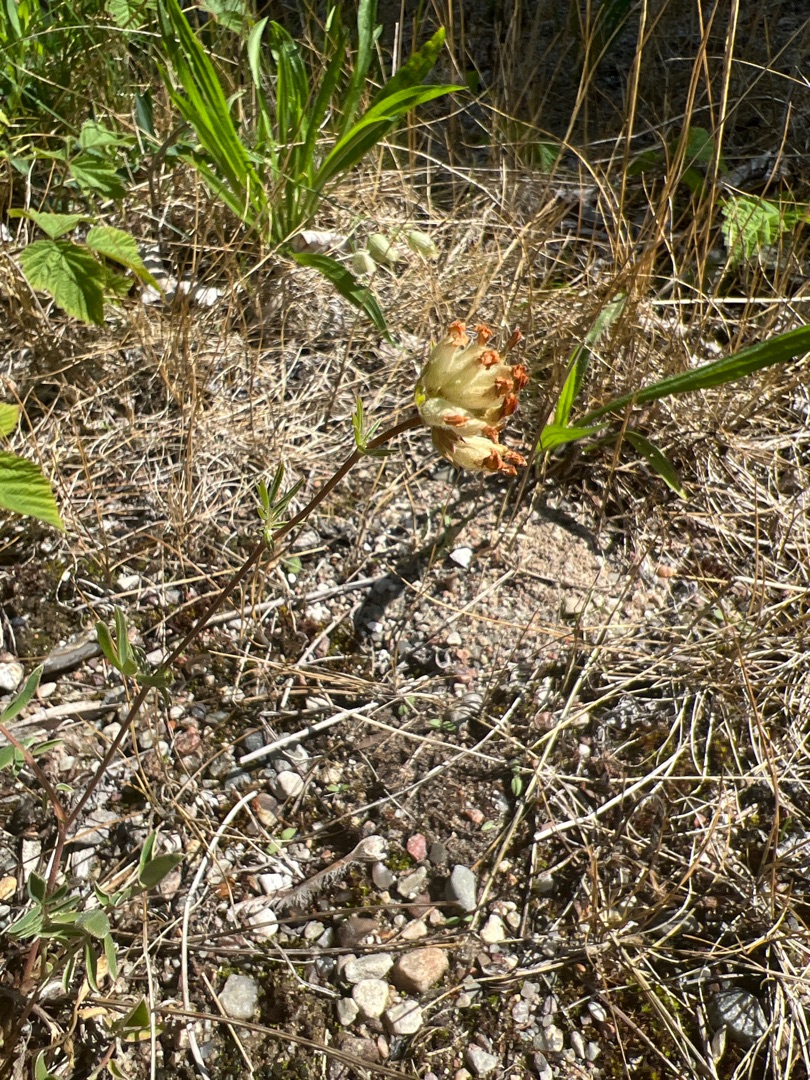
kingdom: Plantae
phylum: Tracheophyta
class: Magnoliopsida
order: Fabales
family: Fabaceae
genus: Anthyllis
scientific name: Anthyllis vulneraria
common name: Rundbælg
